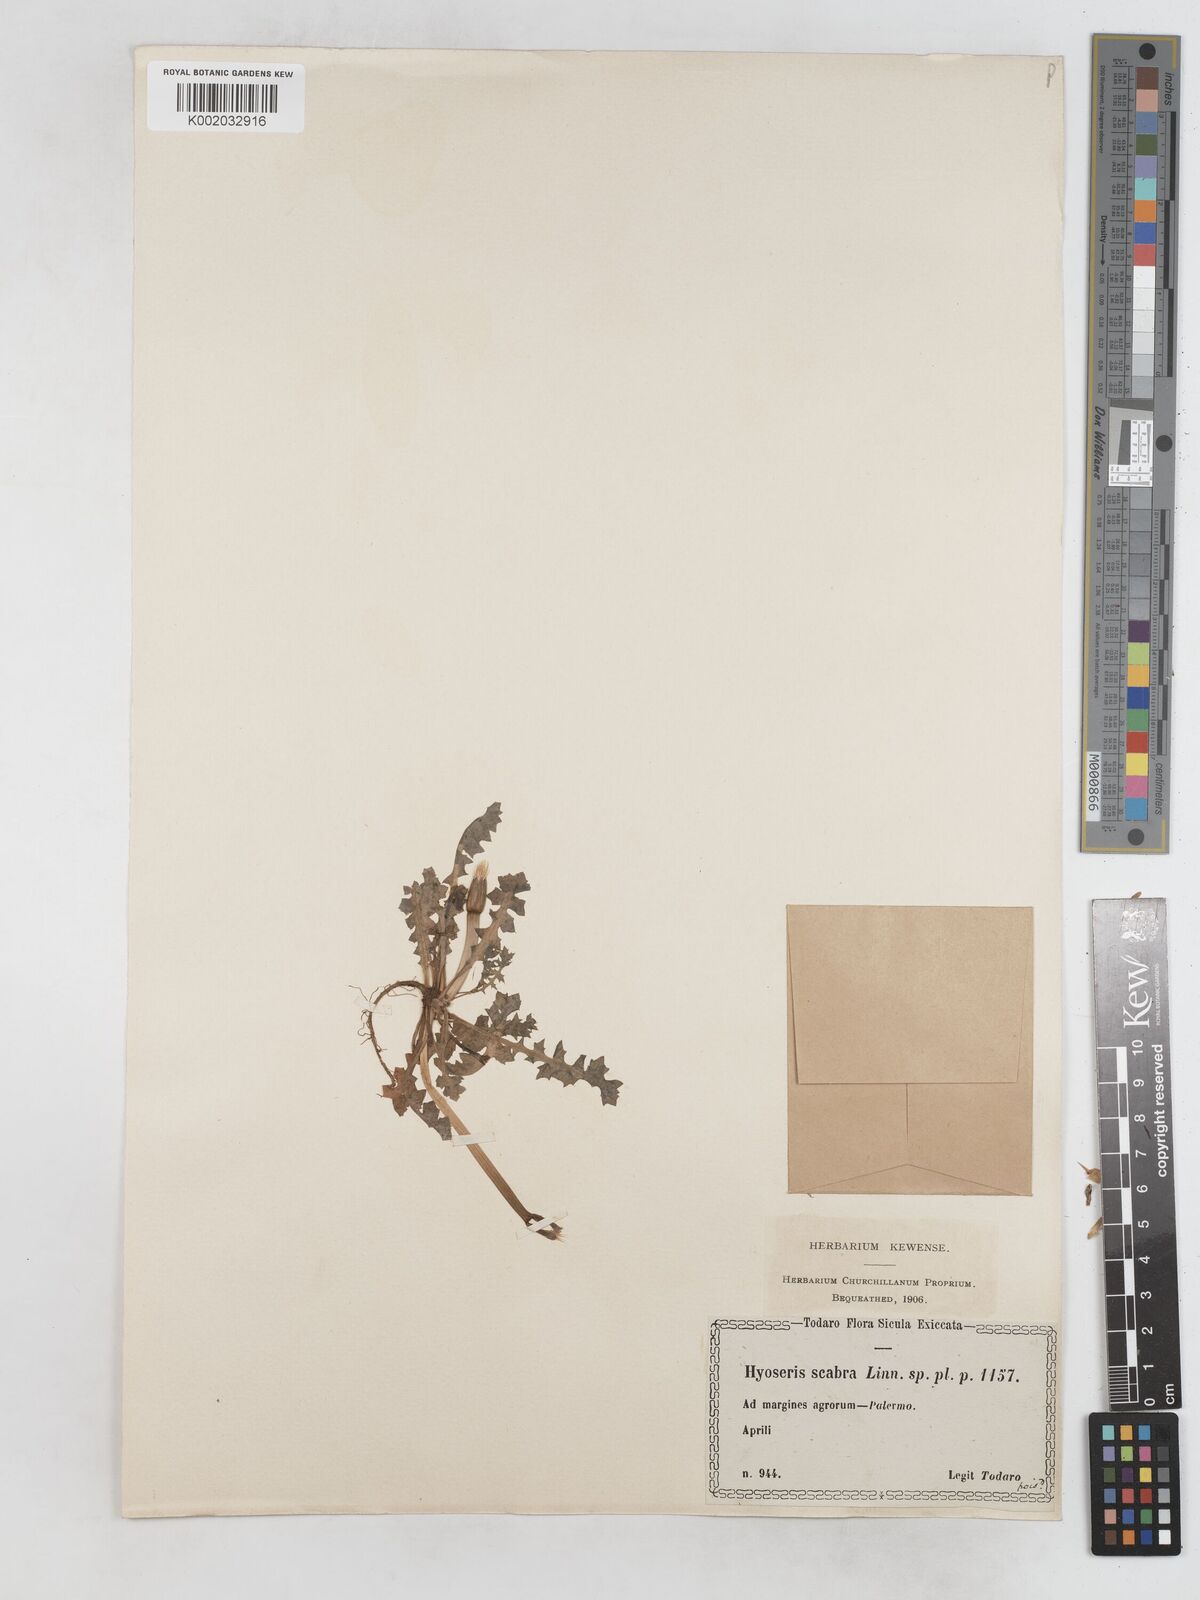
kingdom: Plantae
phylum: Tracheophyta
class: Magnoliopsida
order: Asterales
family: Asteraceae
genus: Hyoseris
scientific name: Hyoseris scabra
